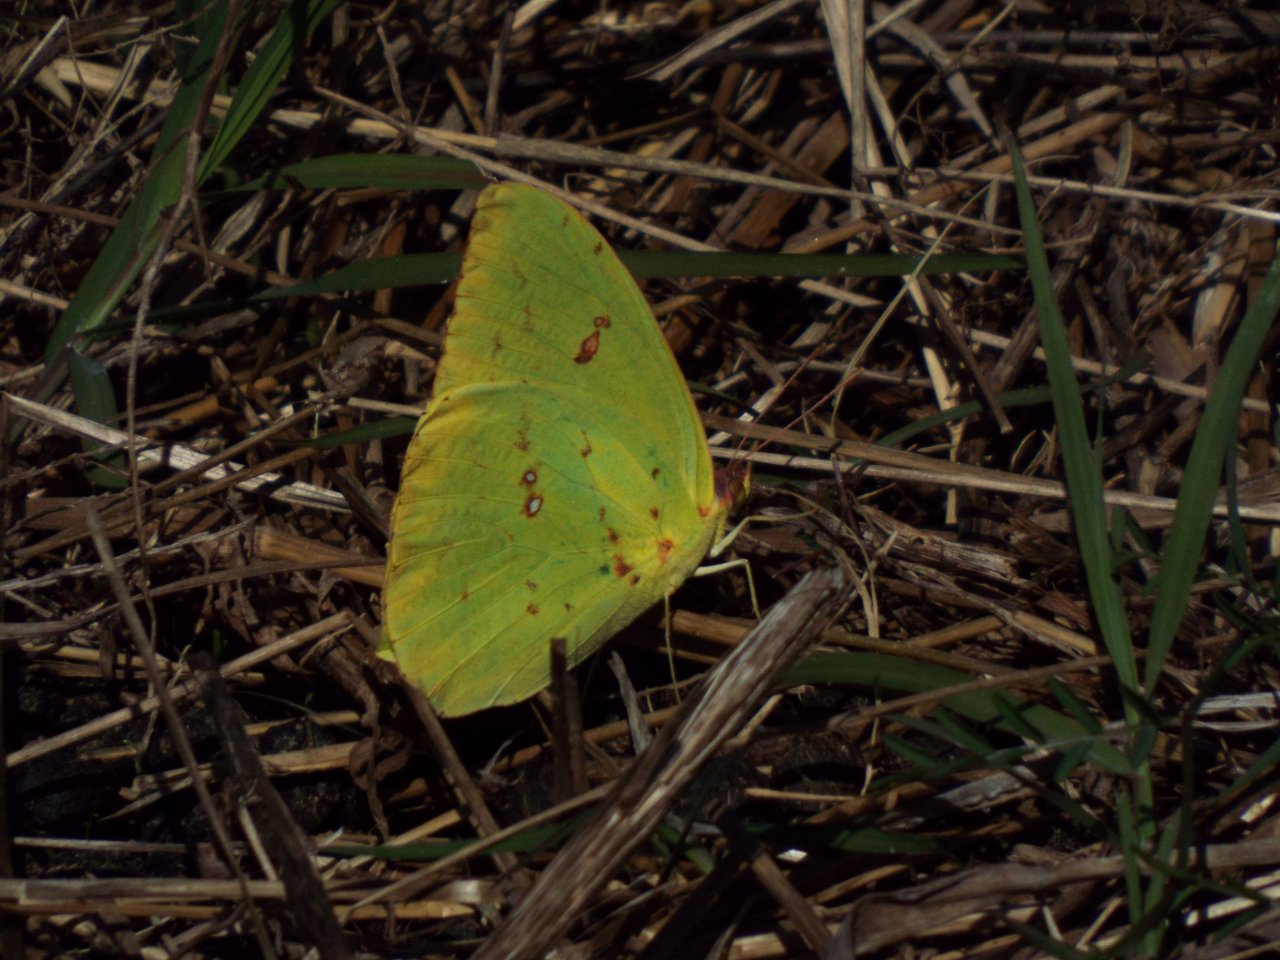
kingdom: Animalia
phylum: Arthropoda
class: Insecta
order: Lepidoptera
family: Pieridae
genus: Phoebis
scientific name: Phoebis sennae
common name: Cloudless Sulphur
